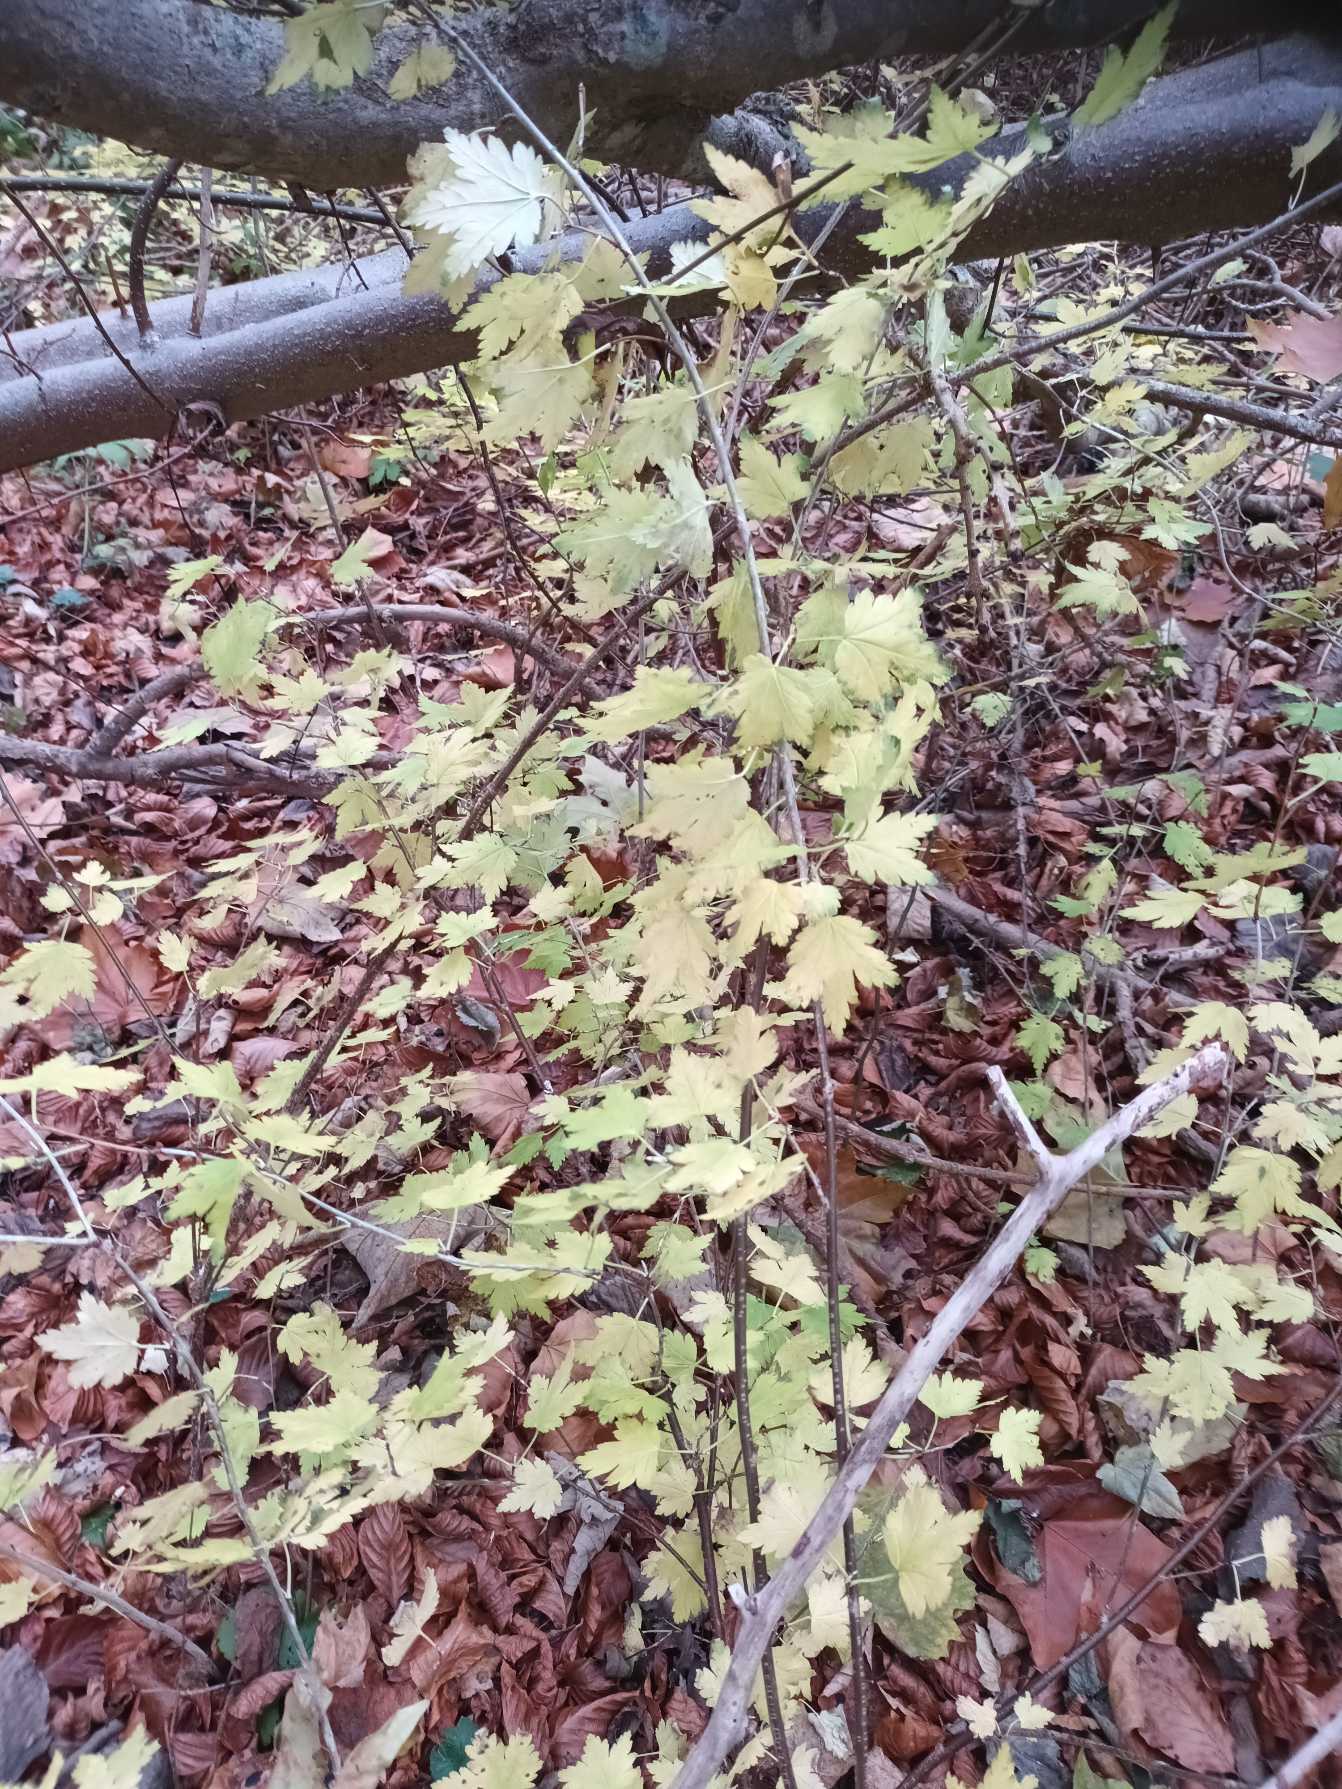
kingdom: Plantae
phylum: Tracheophyta
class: Magnoliopsida
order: Saxifragales
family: Grossulariaceae
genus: Ribes
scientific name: Ribes alpinum
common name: Fjeld-ribs
